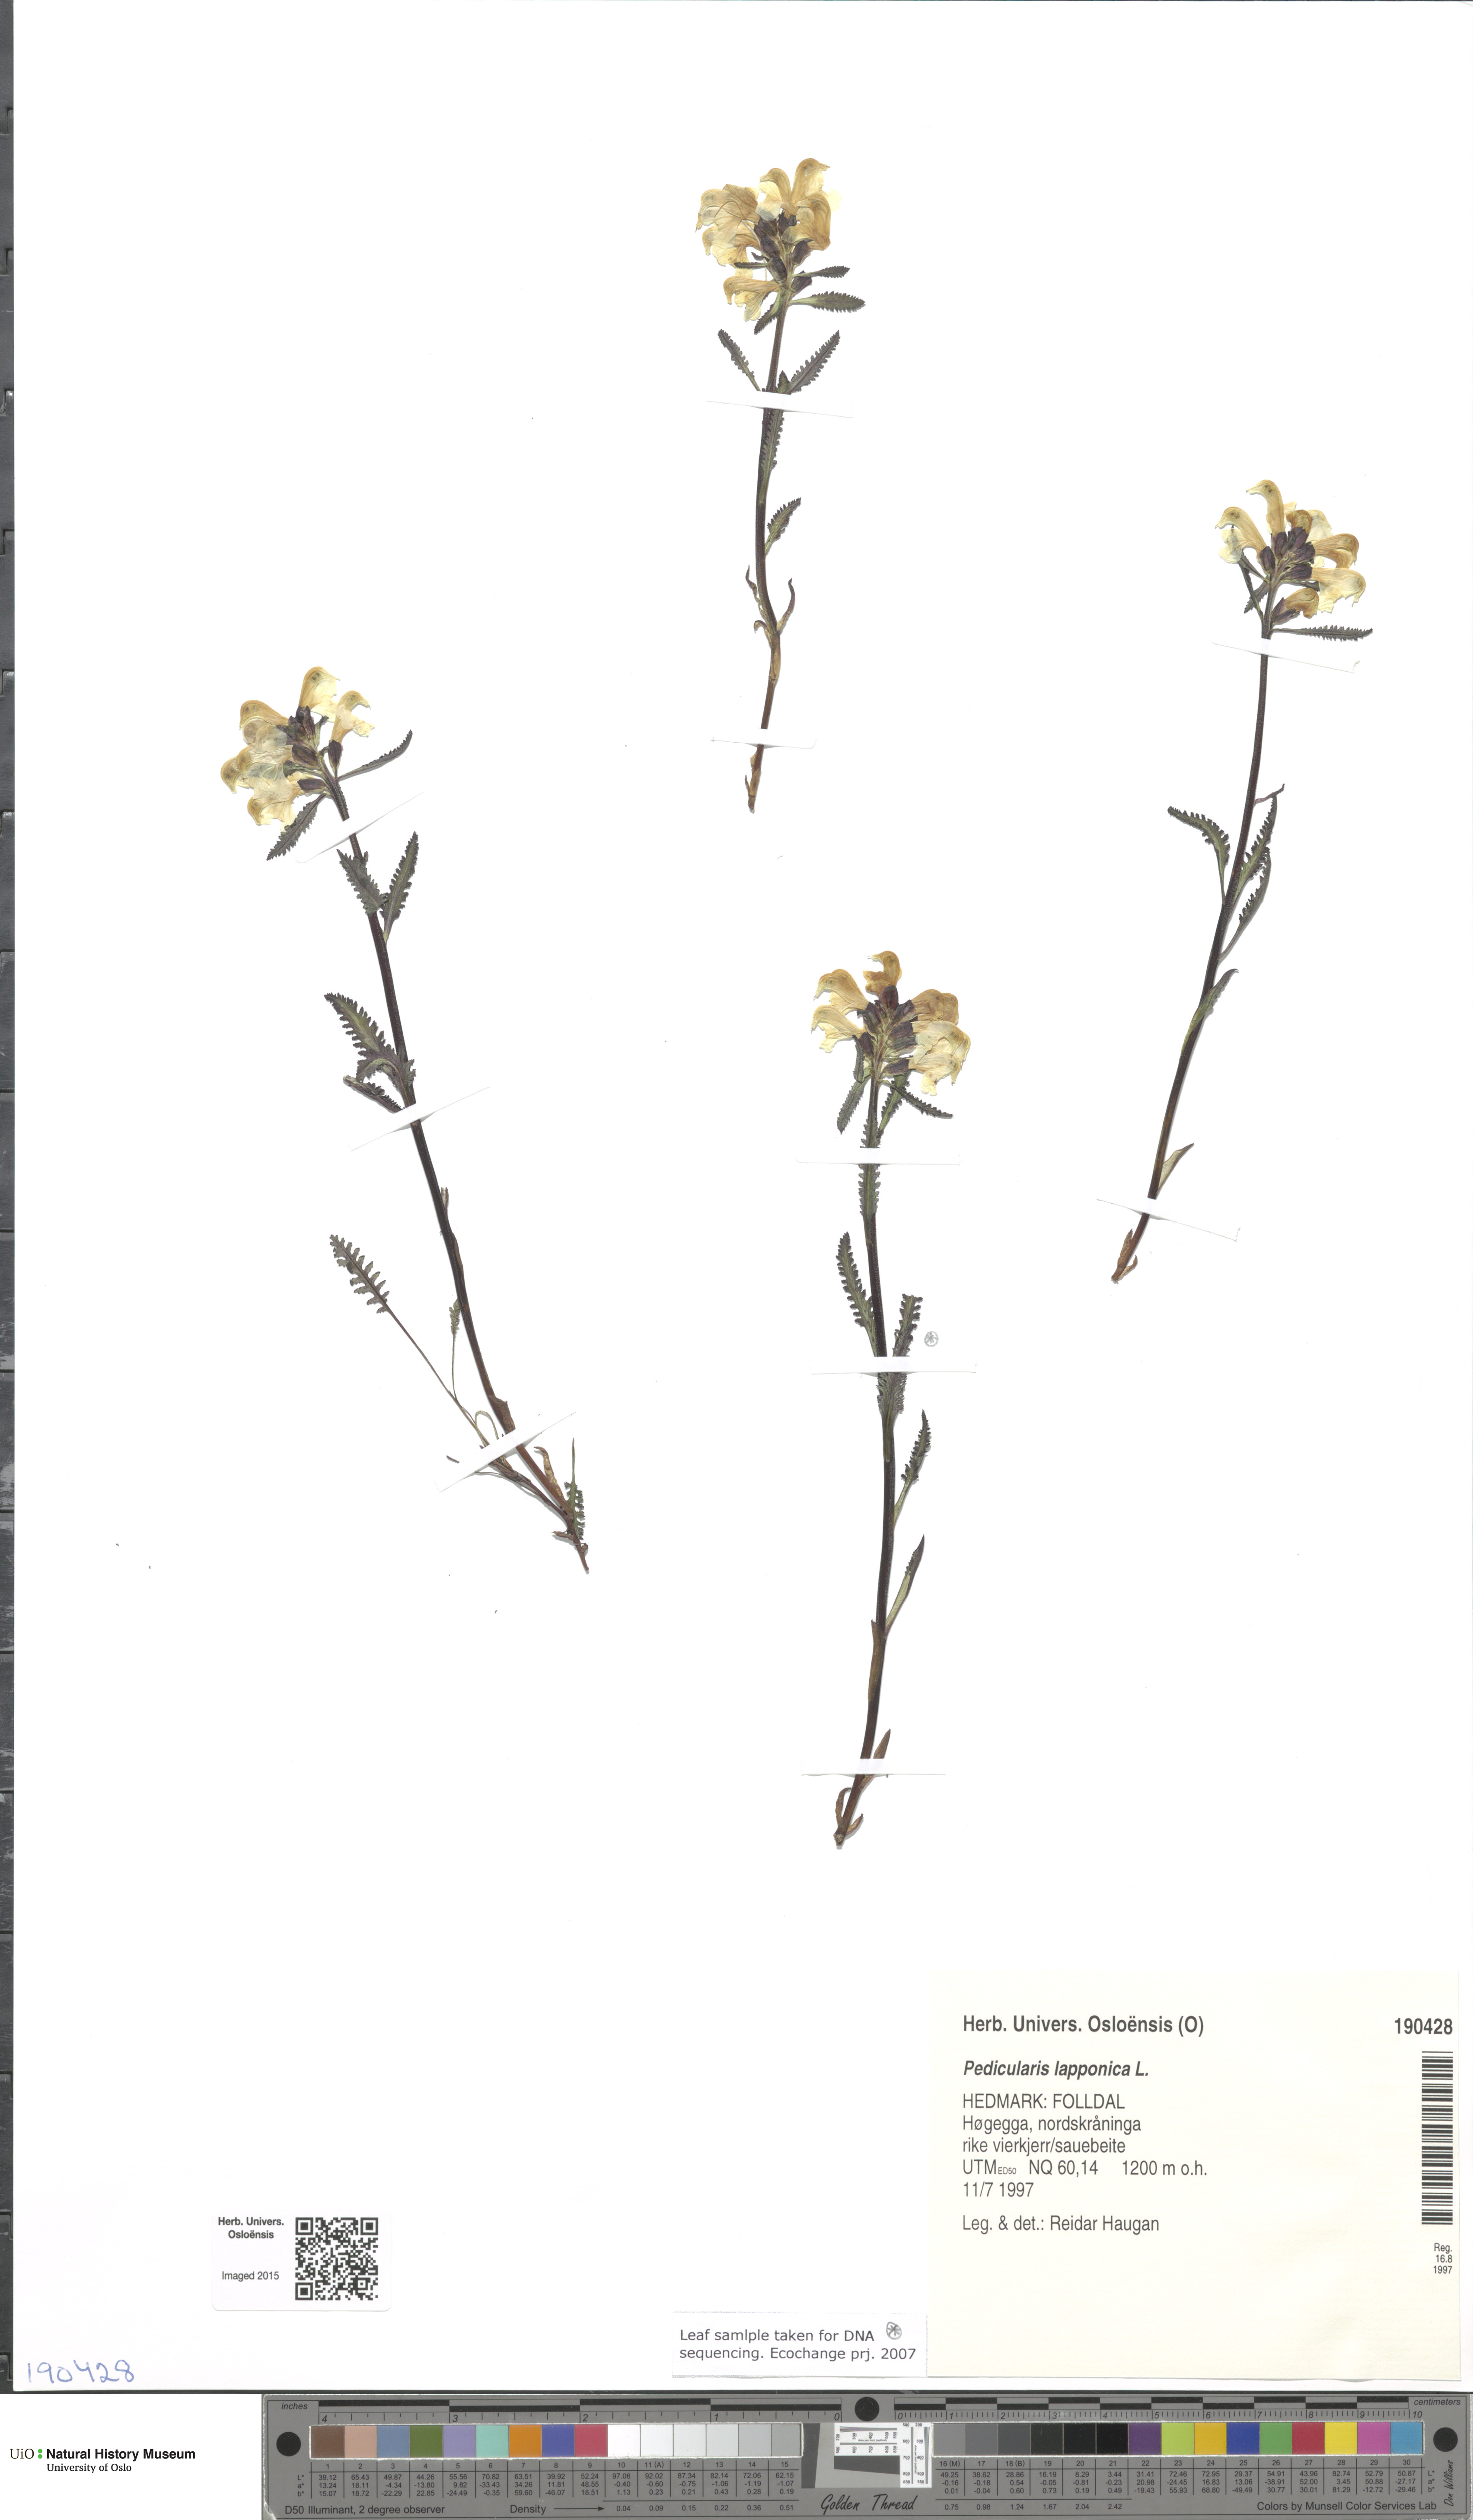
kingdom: Plantae
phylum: Tracheophyta
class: Magnoliopsida
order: Lamiales
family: Orobanchaceae
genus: Pedicularis
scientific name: Pedicularis lapponica
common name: Lapland lousewort
